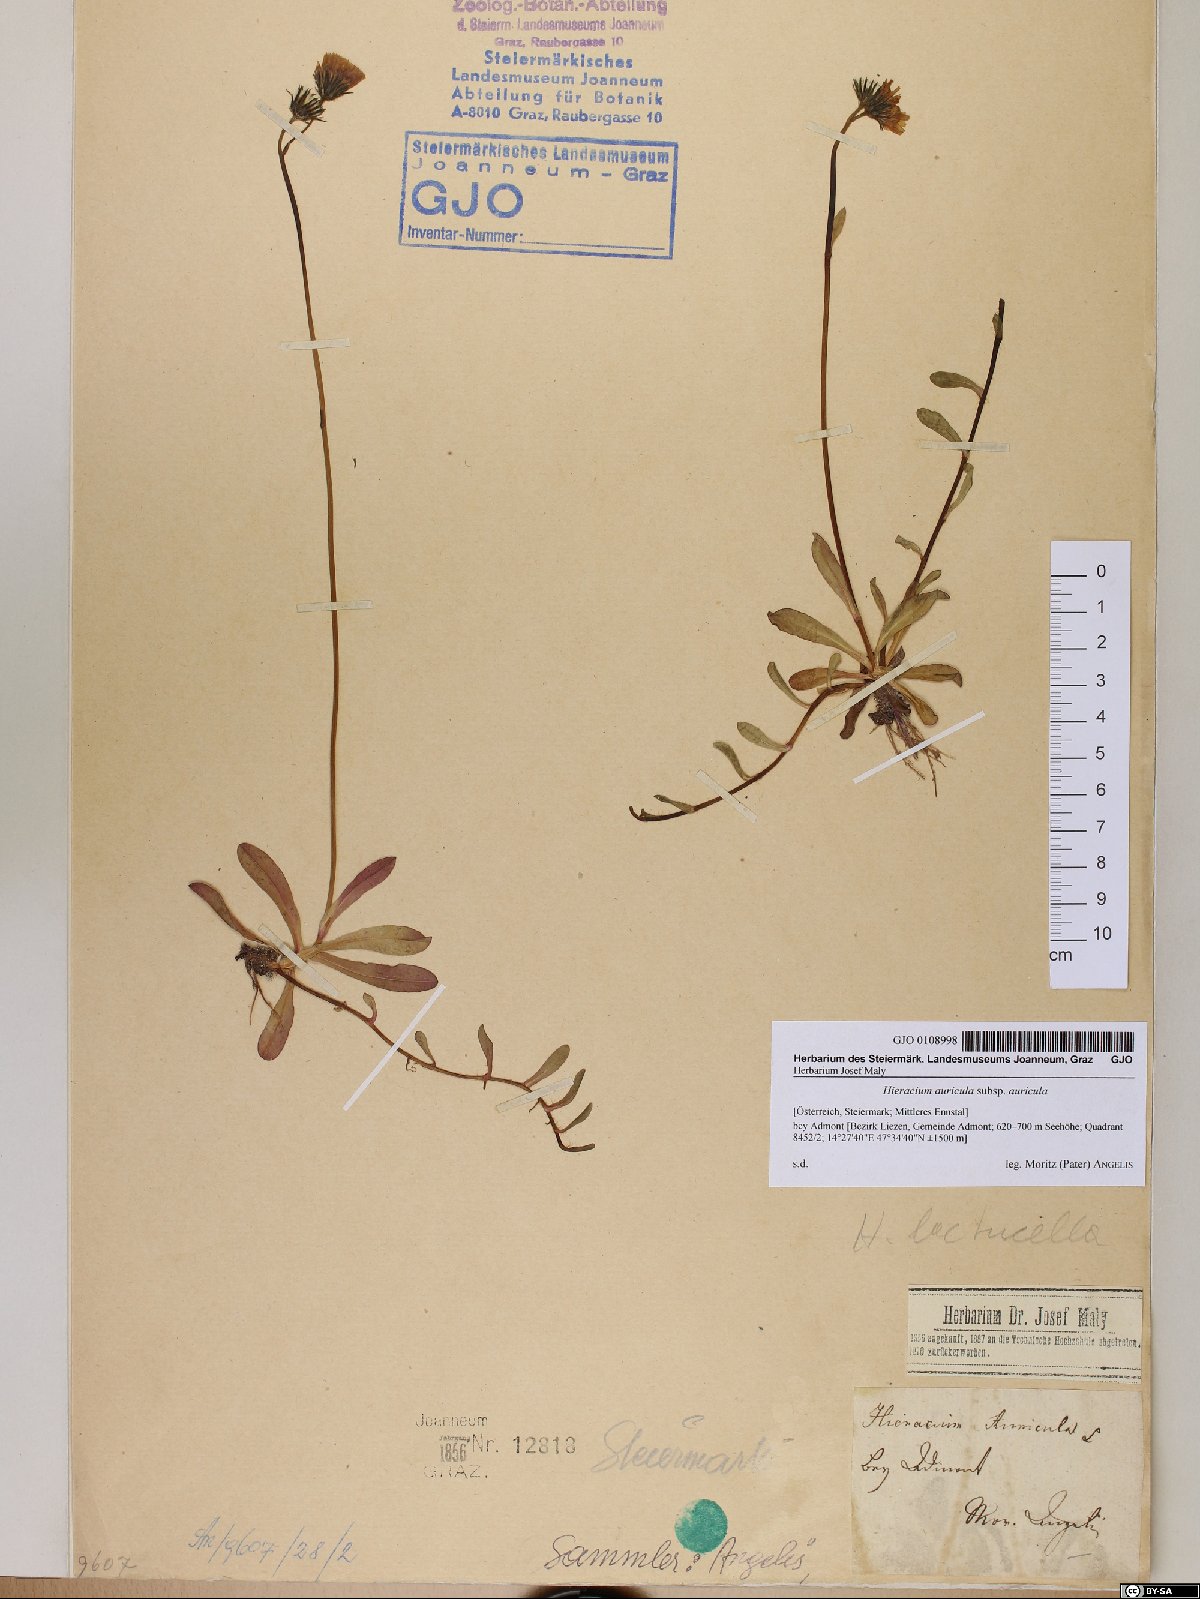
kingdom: Plantae
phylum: Tracheophyta
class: Magnoliopsida
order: Asterales
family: Asteraceae
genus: Hieracium
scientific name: Hieracium auricula
